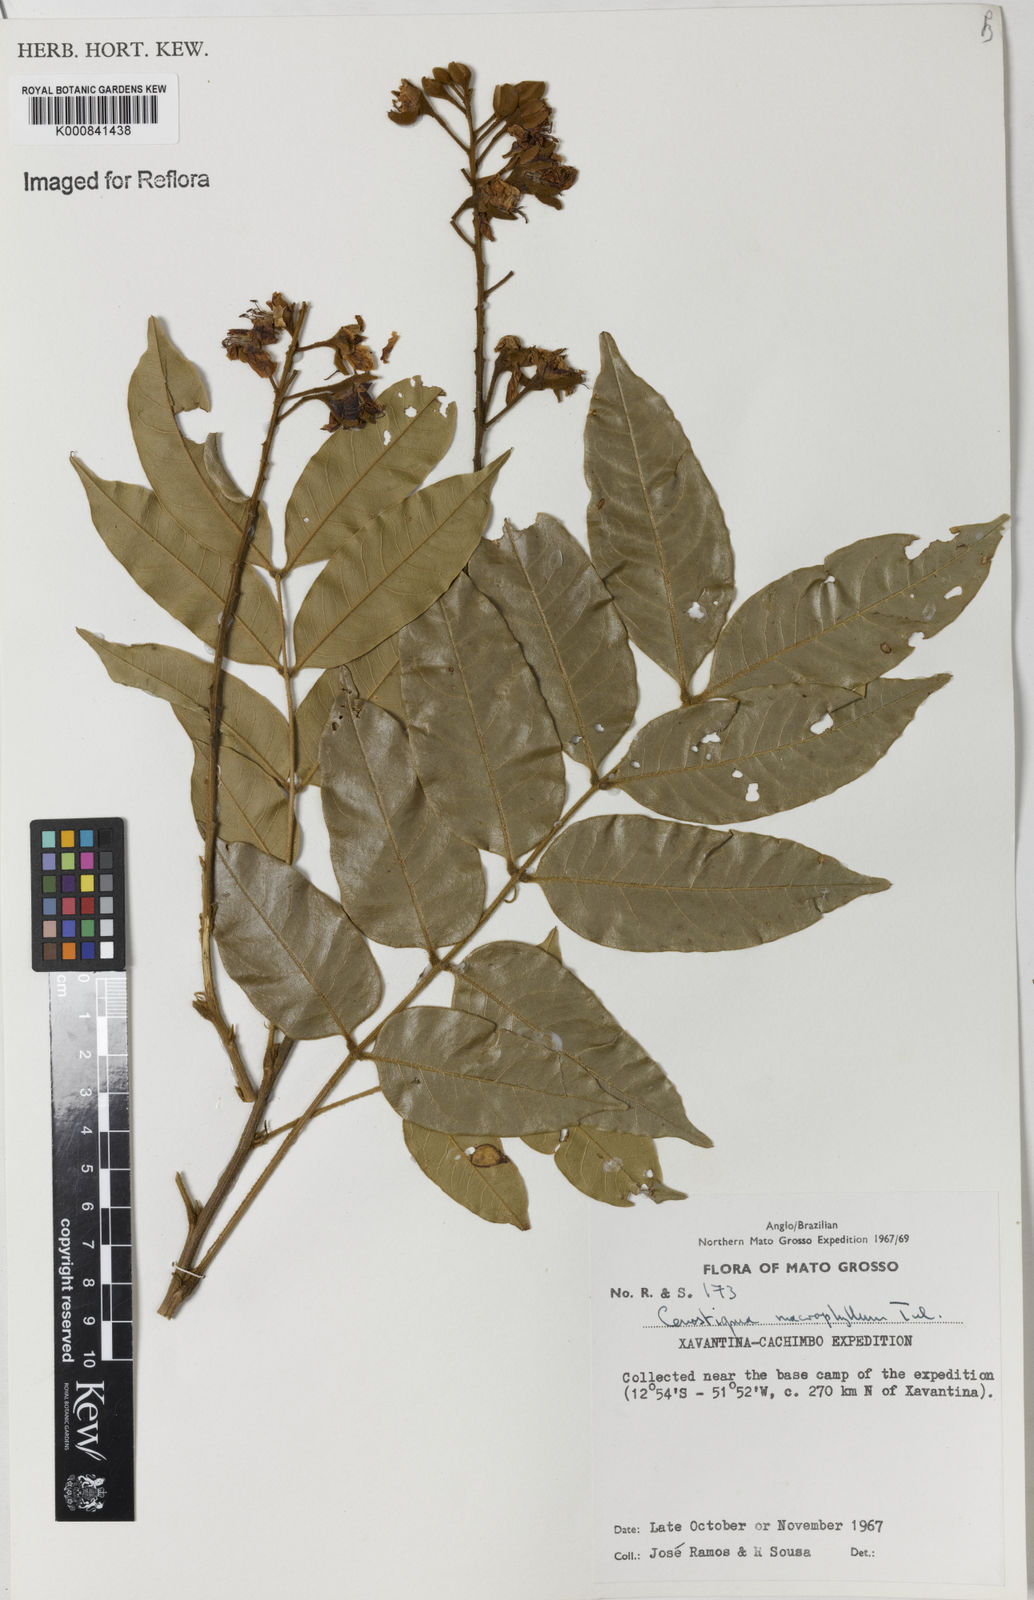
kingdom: Plantae
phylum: Tracheophyta
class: Magnoliopsida
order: Fabales
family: Fabaceae
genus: Cenostigma
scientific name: Cenostigma macrophyllum
